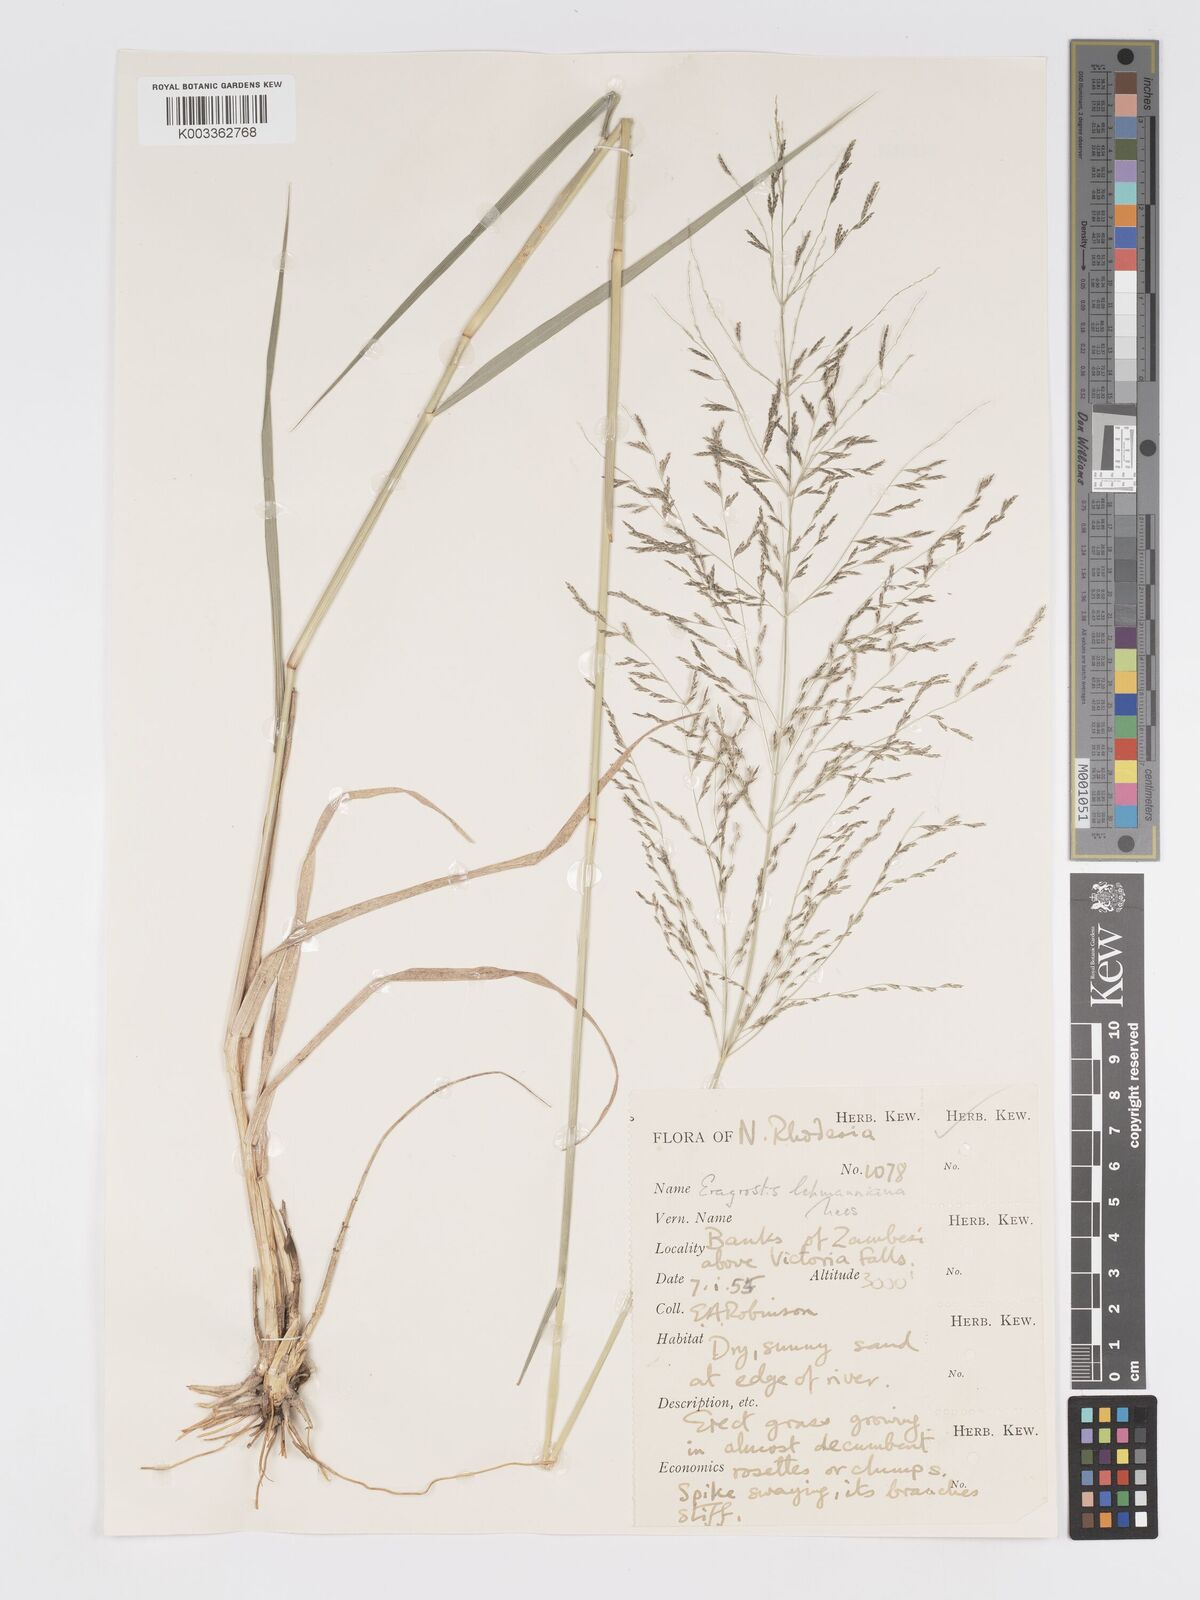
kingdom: Plantae
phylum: Tracheophyta
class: Liliopsida
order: Poales
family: Poaceae
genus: Eragrostis
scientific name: Eragrostis cylindriflora
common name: Cylinderflower lovegrass
